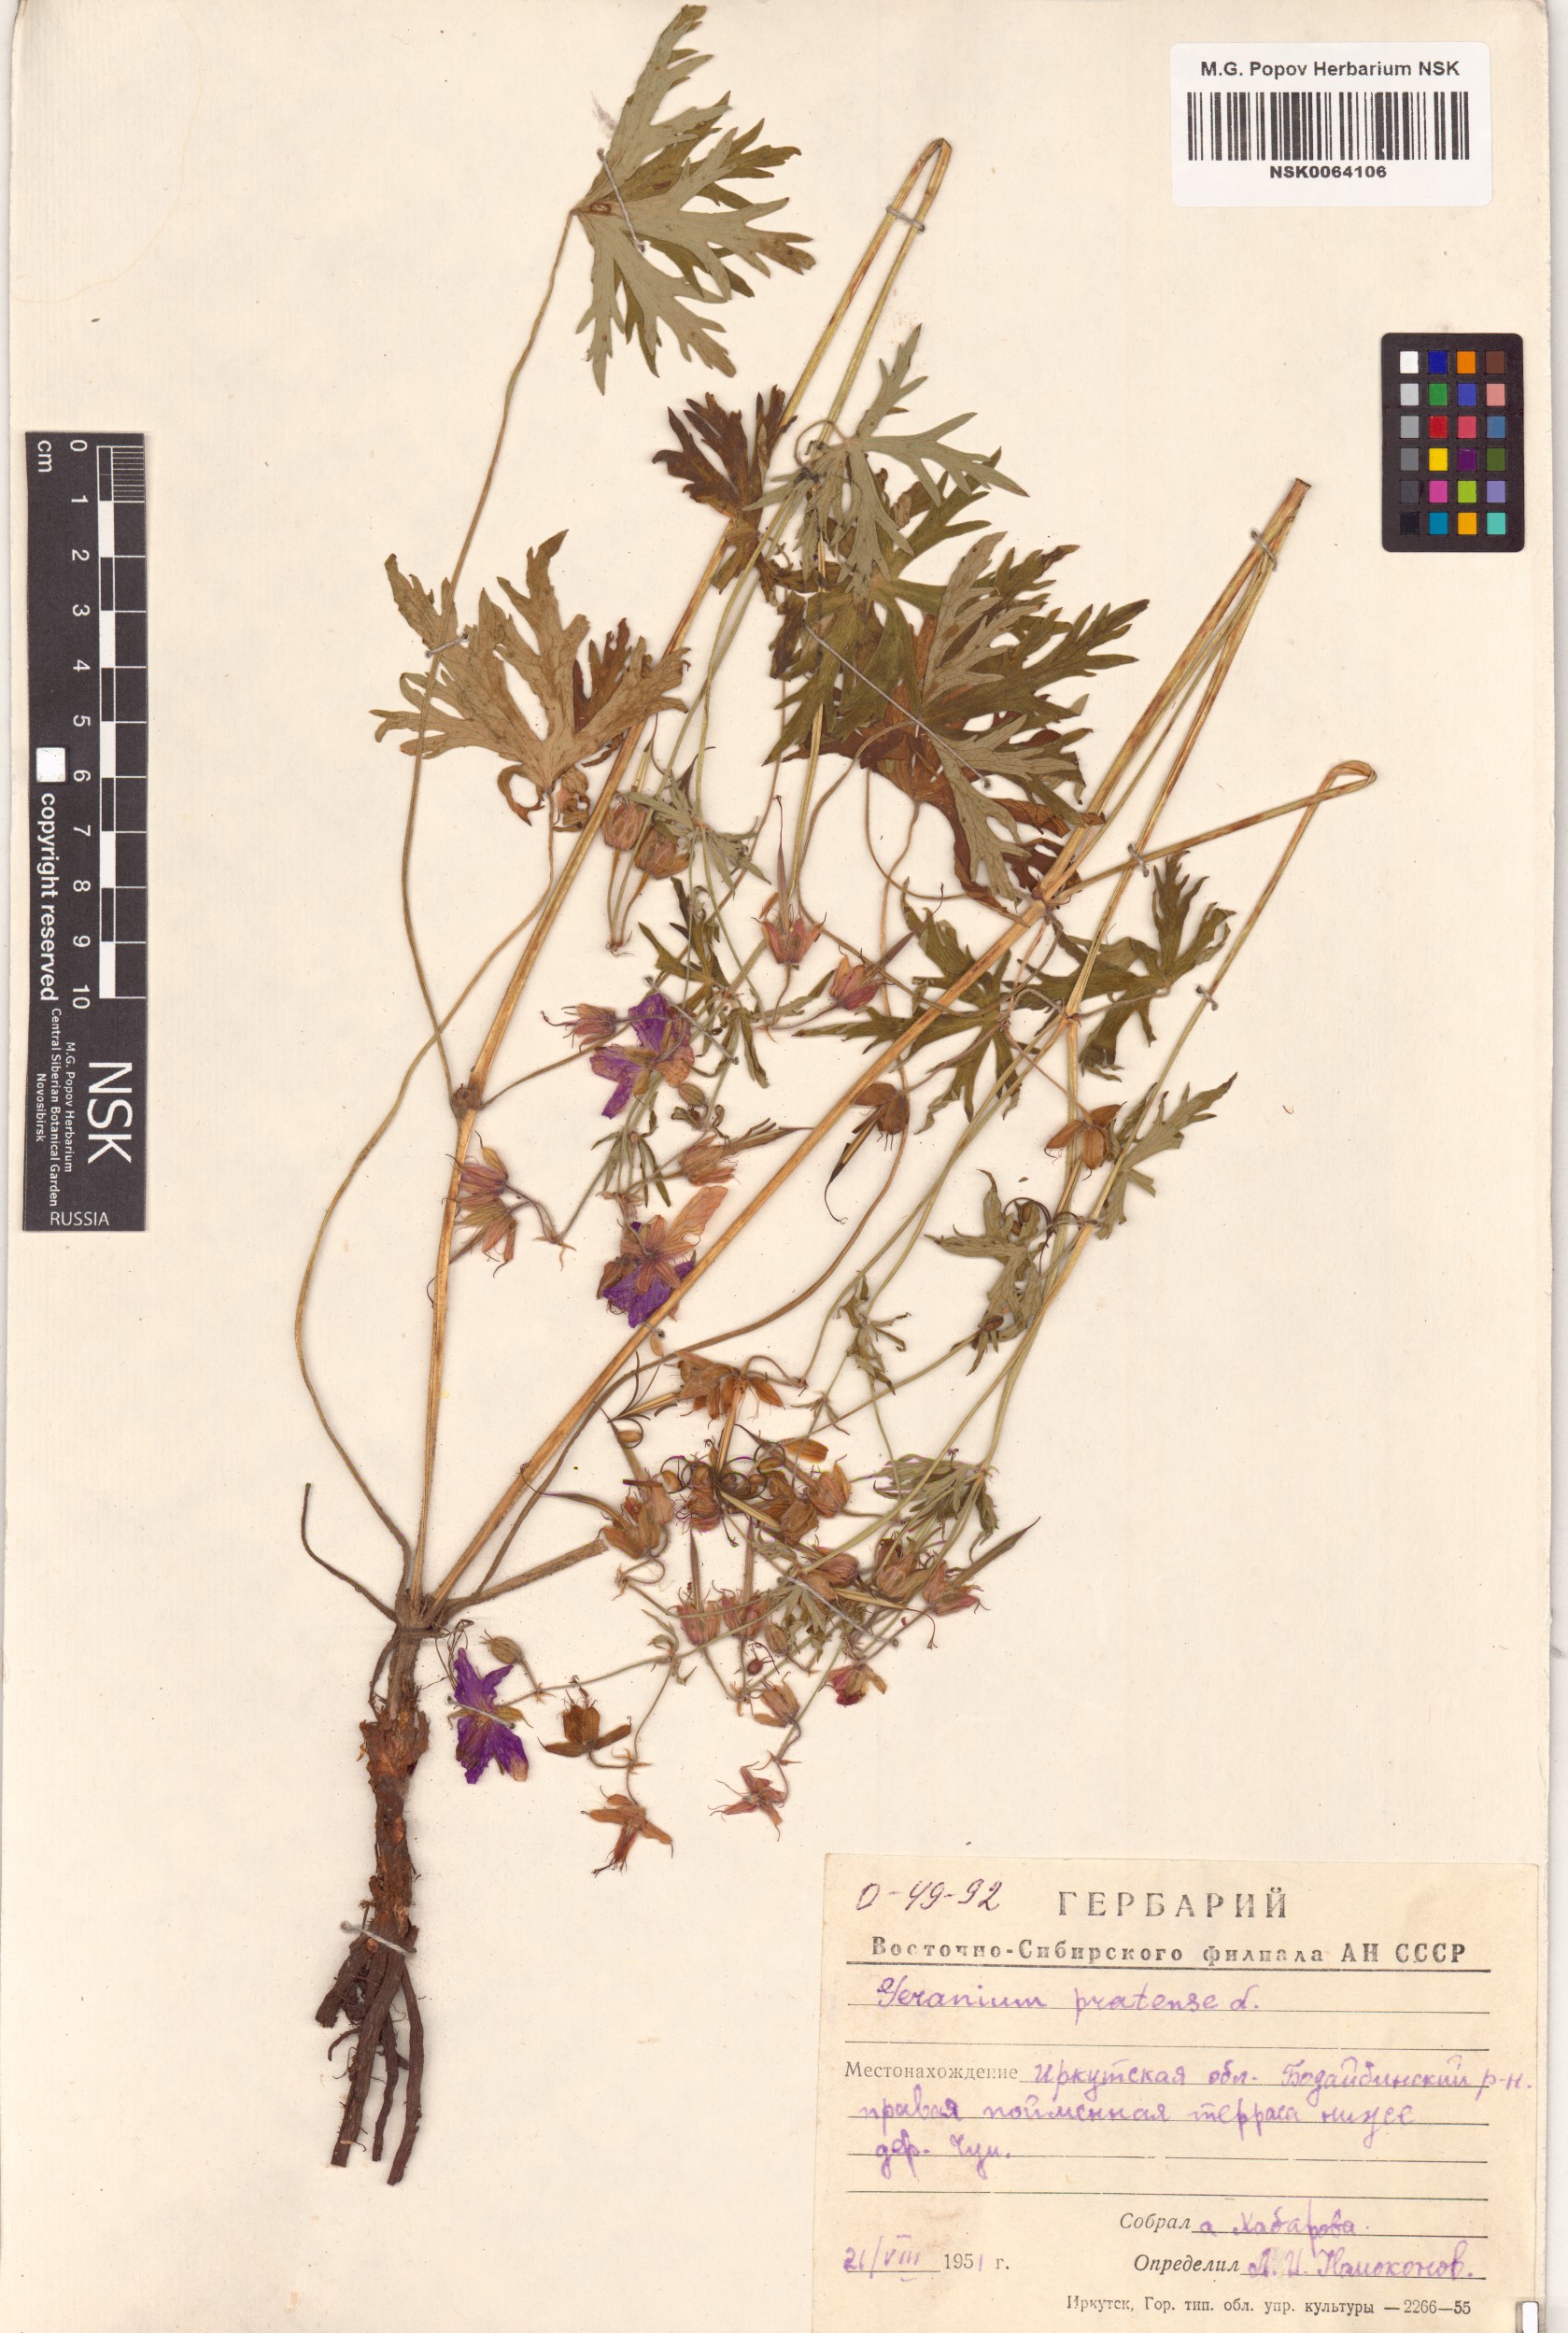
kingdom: Plantae
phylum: Tracheophyta
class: Magnoliopsida
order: Geraniales
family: Geraniaceae
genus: Geranium
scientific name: Geranium pratense
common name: Meadow crane's-bill
